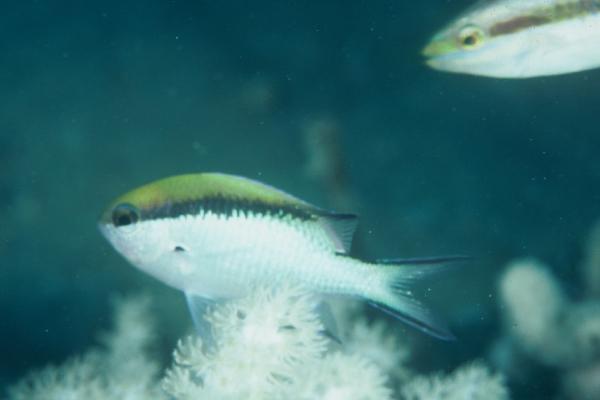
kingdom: Animalia
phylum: Chordata
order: Perciformes
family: Pomacentridae
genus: Chromis
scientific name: Chromis nitida
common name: Barrier reef chromis
